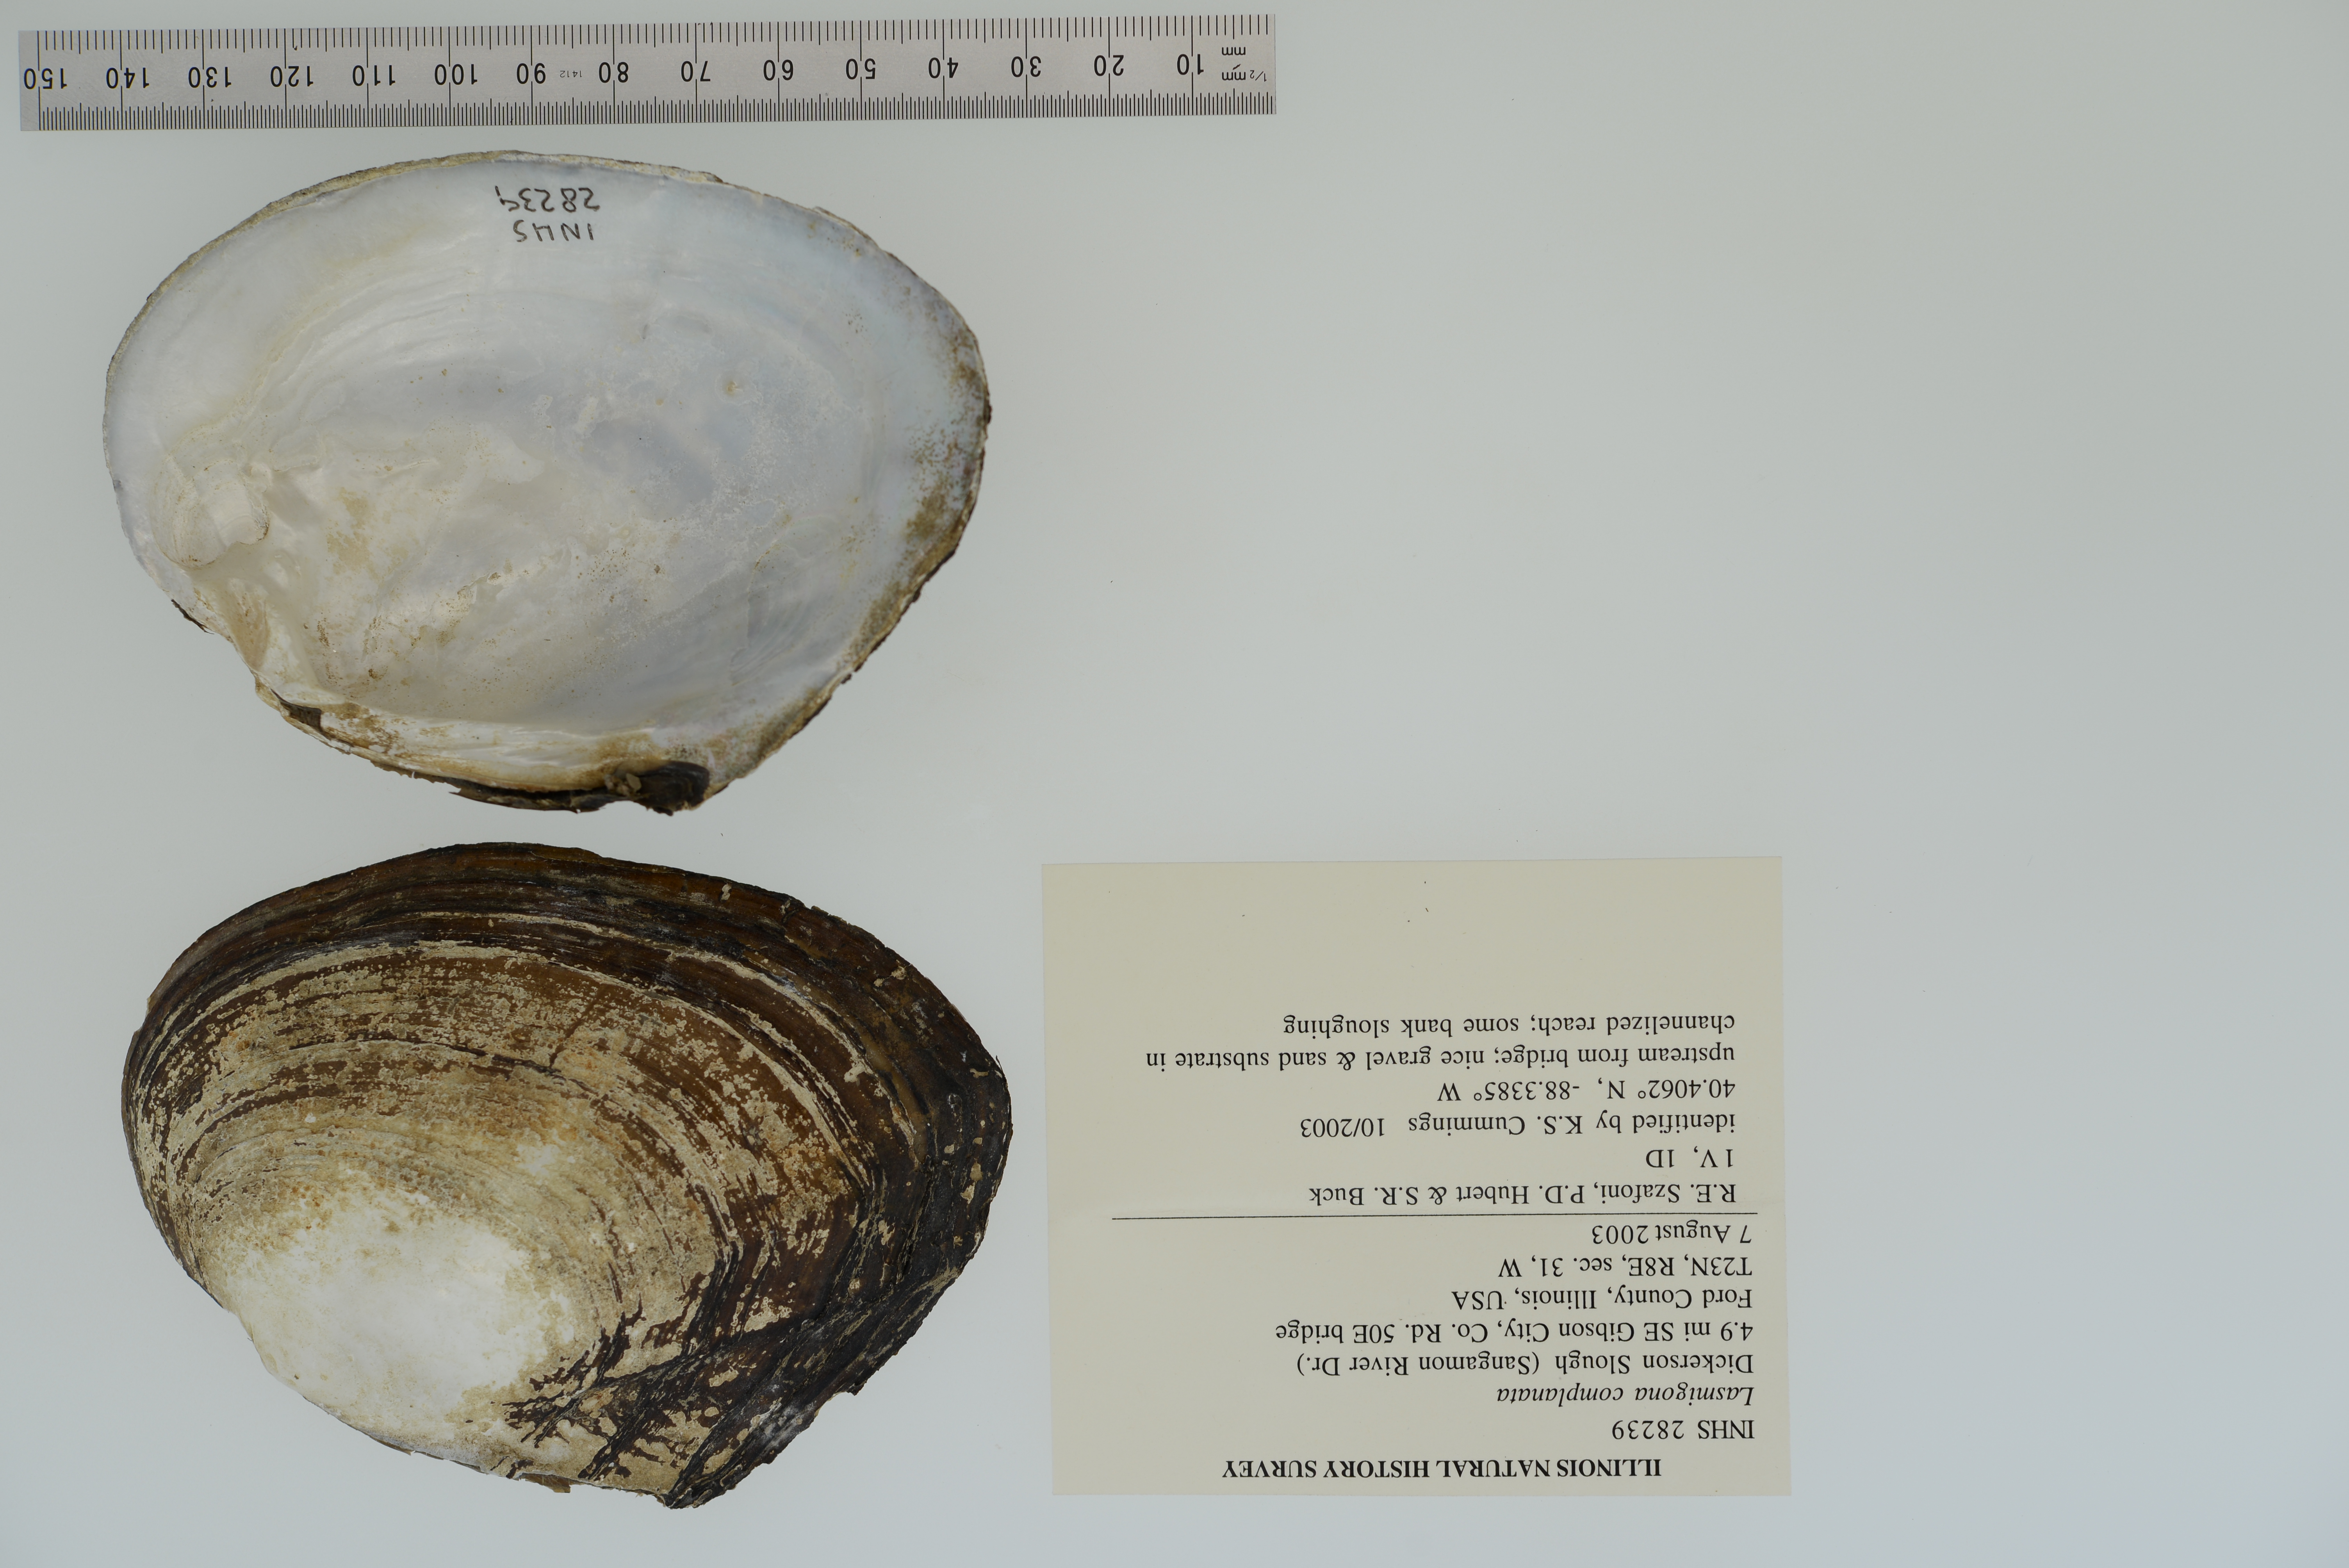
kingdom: Animalia
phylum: Mollusca
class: Bivalvia
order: Unionida
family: Unionidae
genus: Lasmigona
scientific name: Lasmigona complanata
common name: White heelsplitter
